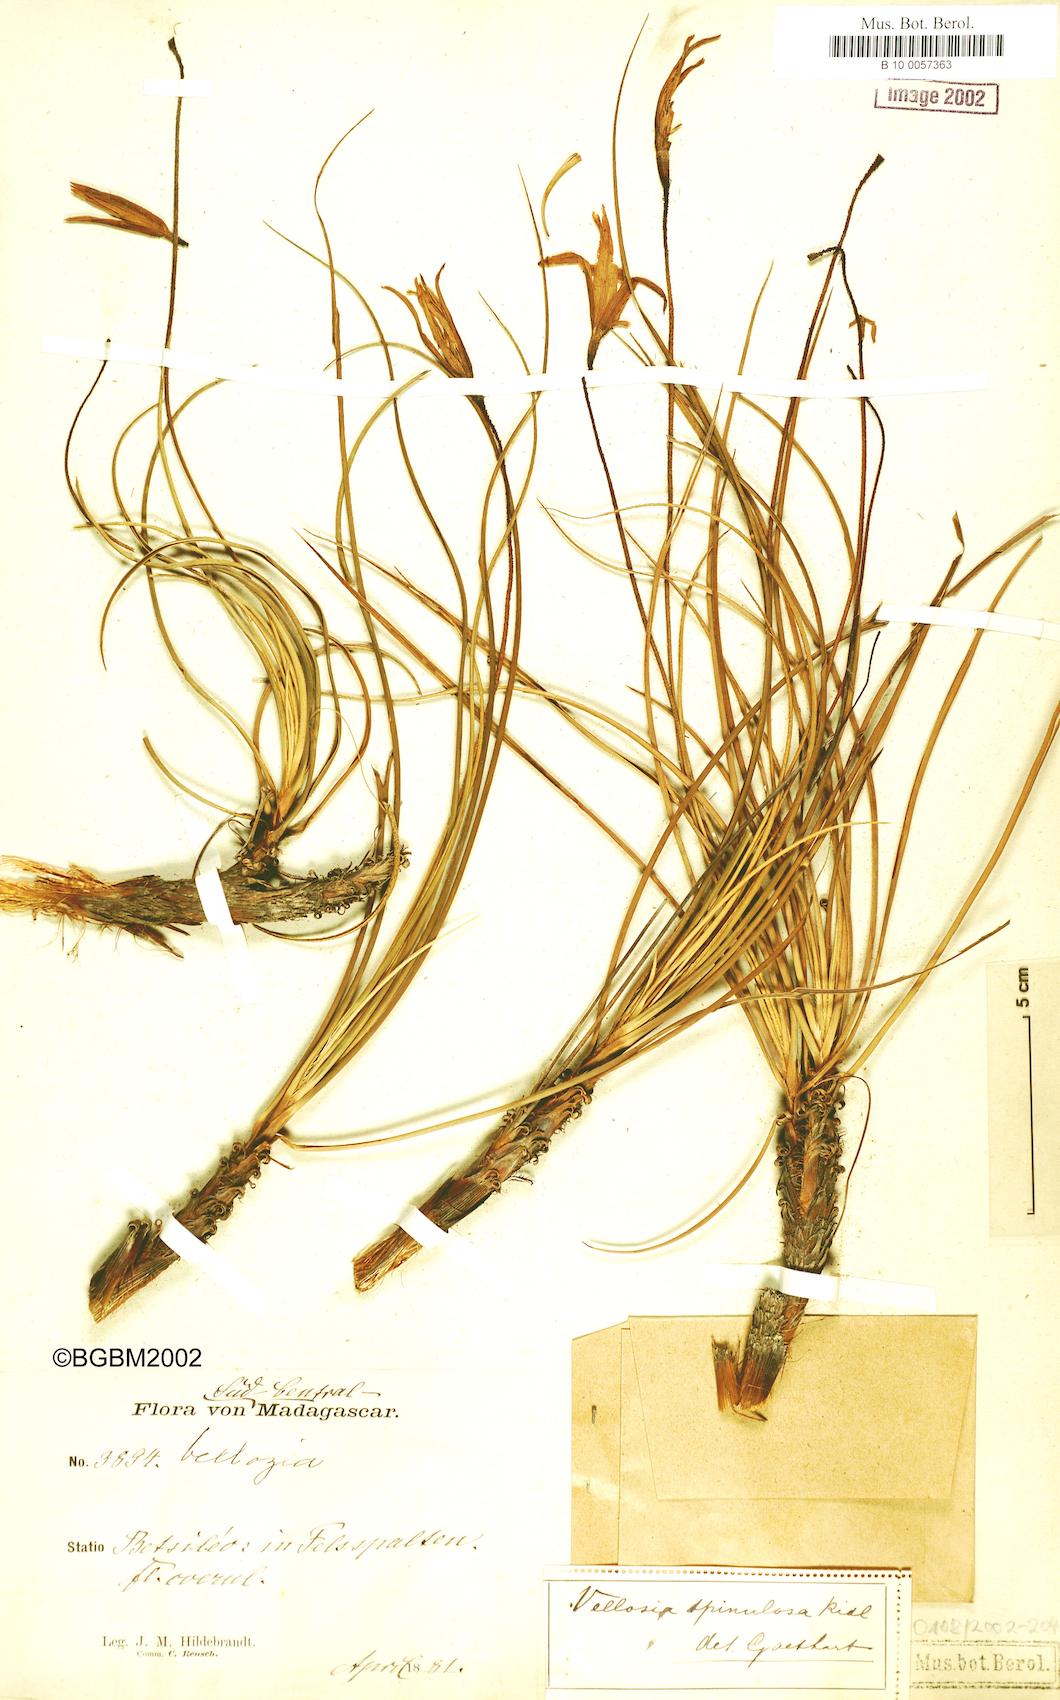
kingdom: Plantae
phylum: Tracheophyta
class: Liliopsida
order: Pandanales
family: Velloziaceae
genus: Xerophyta
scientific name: Xerophyta pectinata
